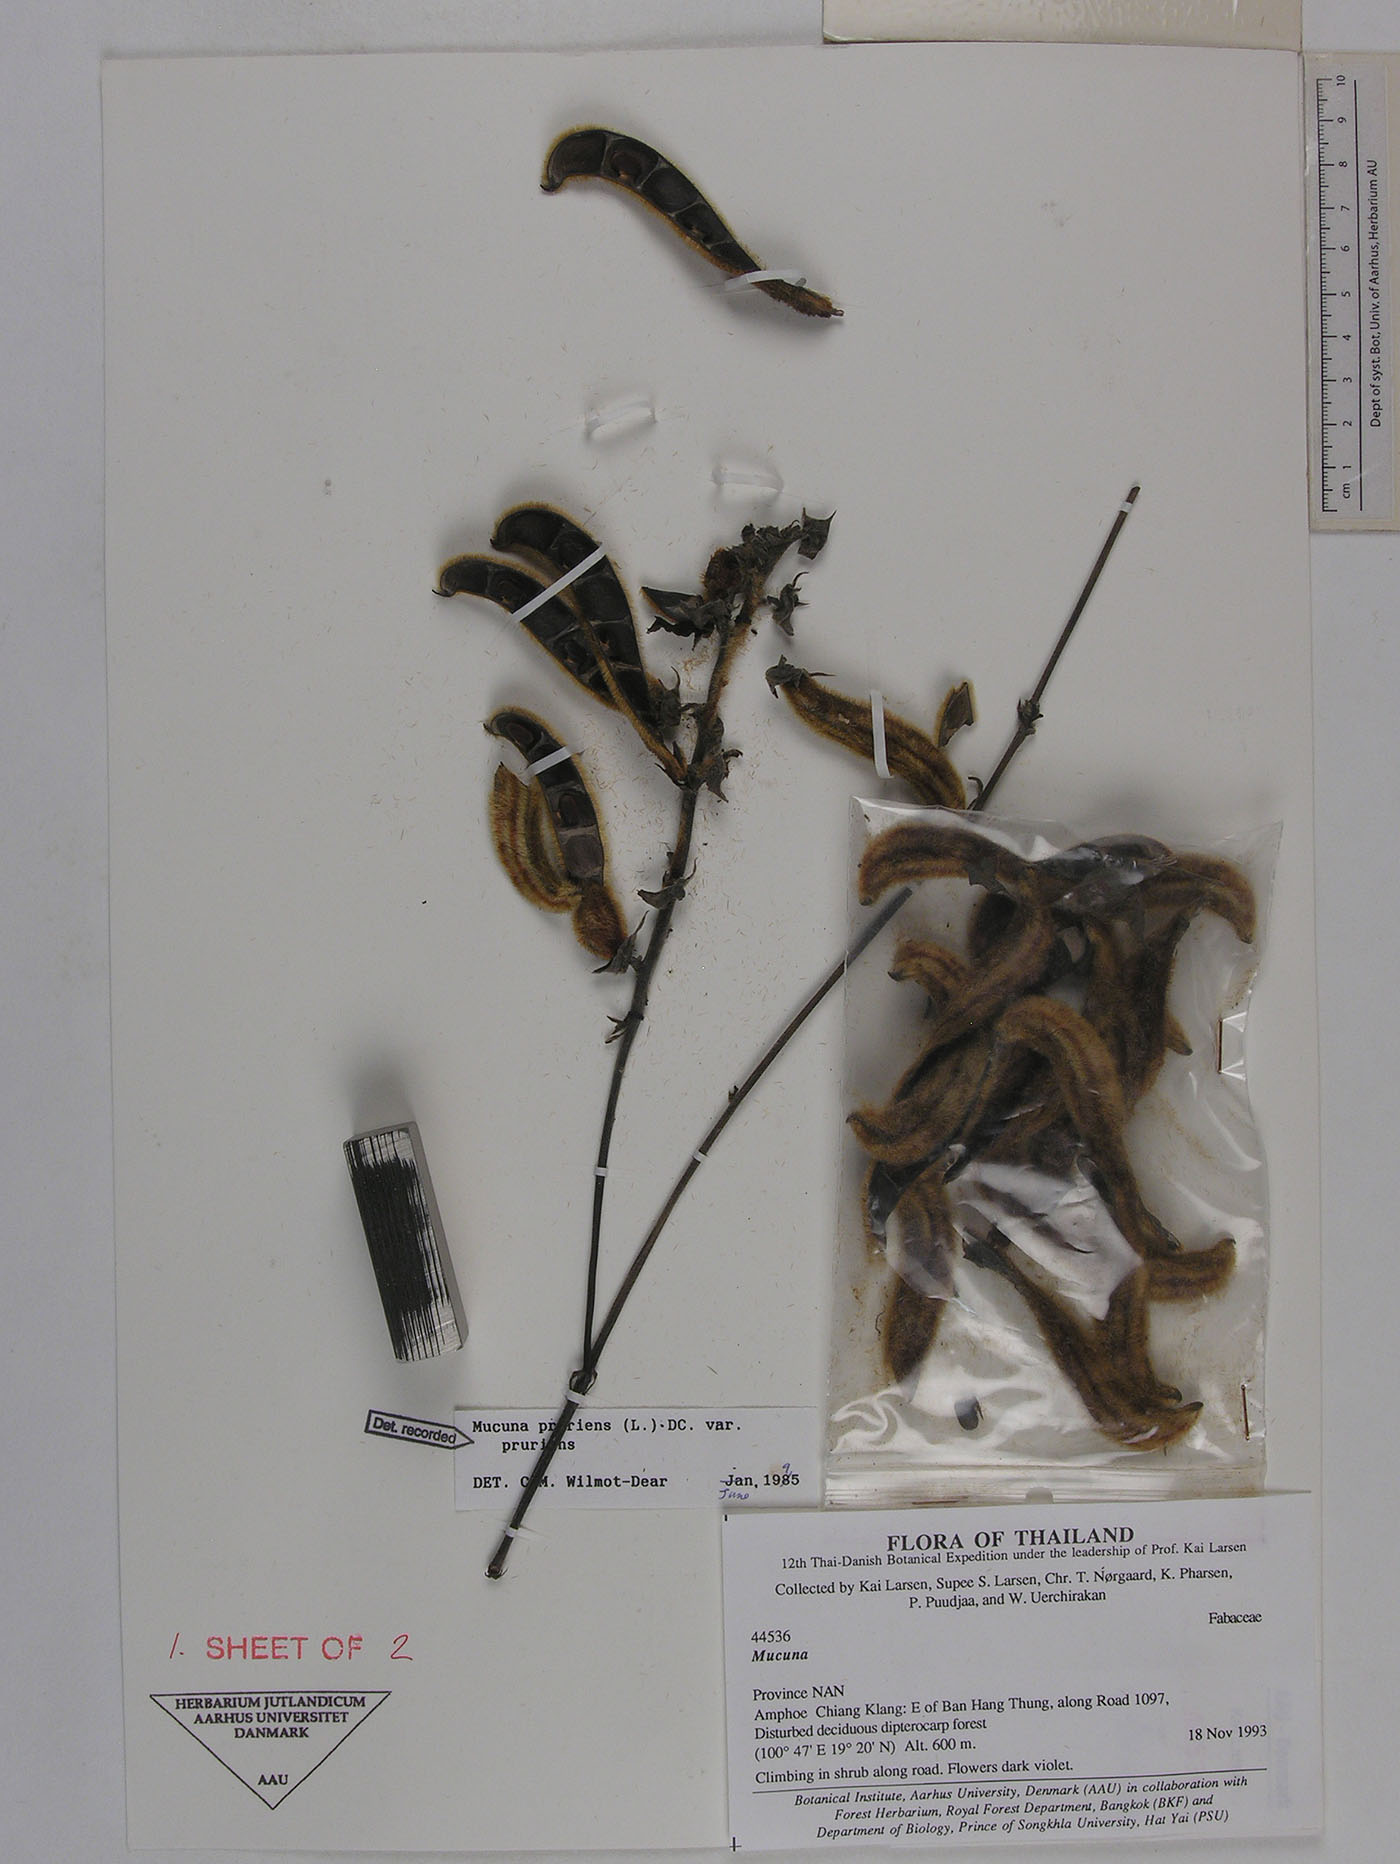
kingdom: Plantae
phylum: Tracheophyta
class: Magnoliopsida
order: Fabales
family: Fabaceae
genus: Mucuna
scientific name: Mucuna pruriens
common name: Cow-itch
